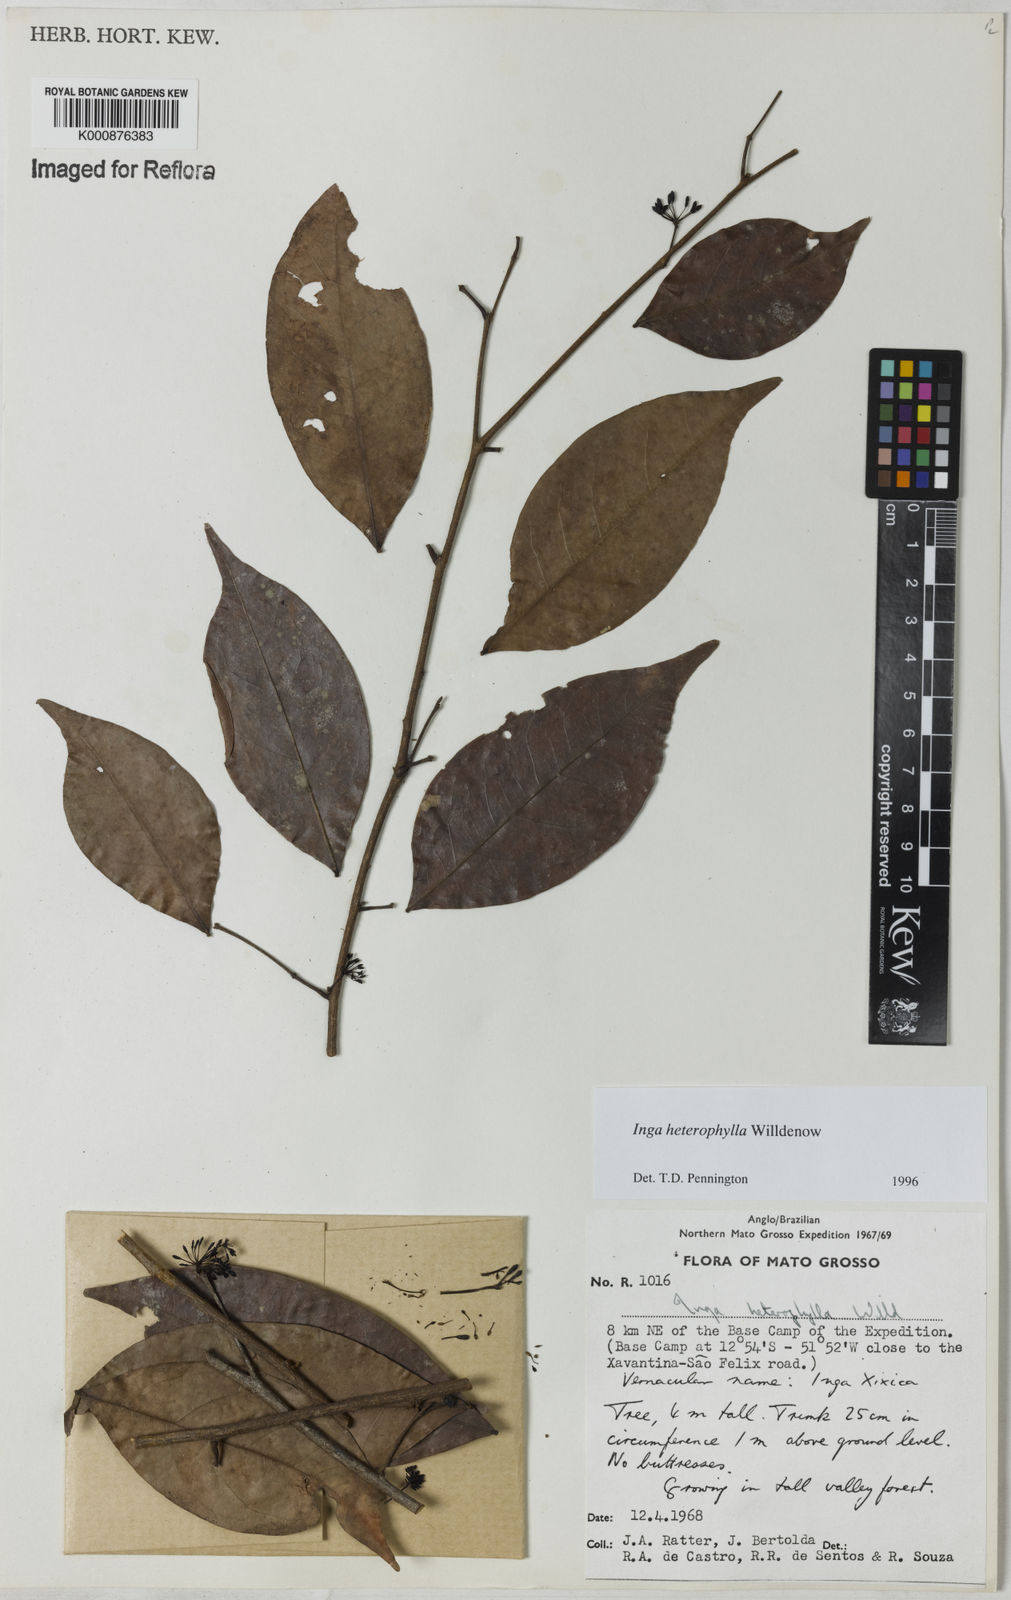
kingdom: Plantae
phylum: Tracheophyta
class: Magnoliopsida
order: Fabales
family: Fabaceae
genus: Inga
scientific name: Inga heterophylla
